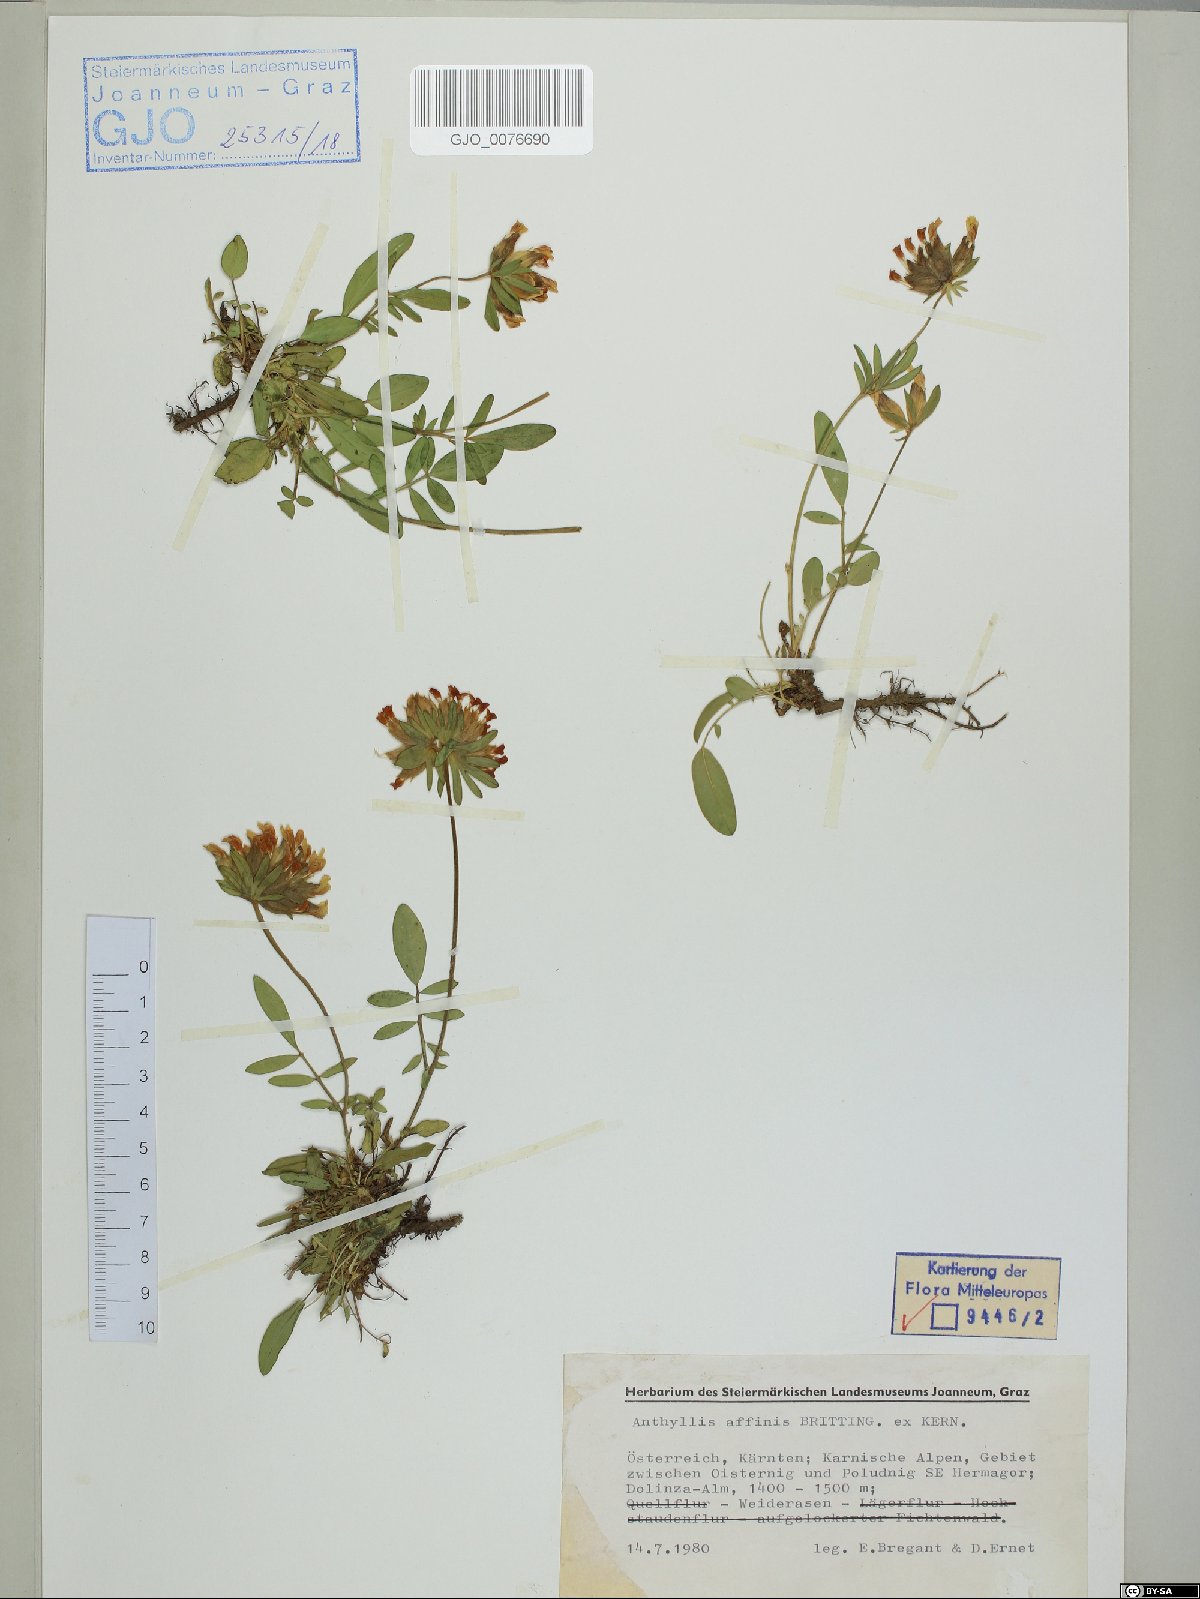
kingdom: Plantae
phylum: Tracheophyta
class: Magnoliopsida
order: Fabales
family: Fabaceae
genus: Anthyllis
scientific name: Anthyllis vulneraria
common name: Kidney vetch
